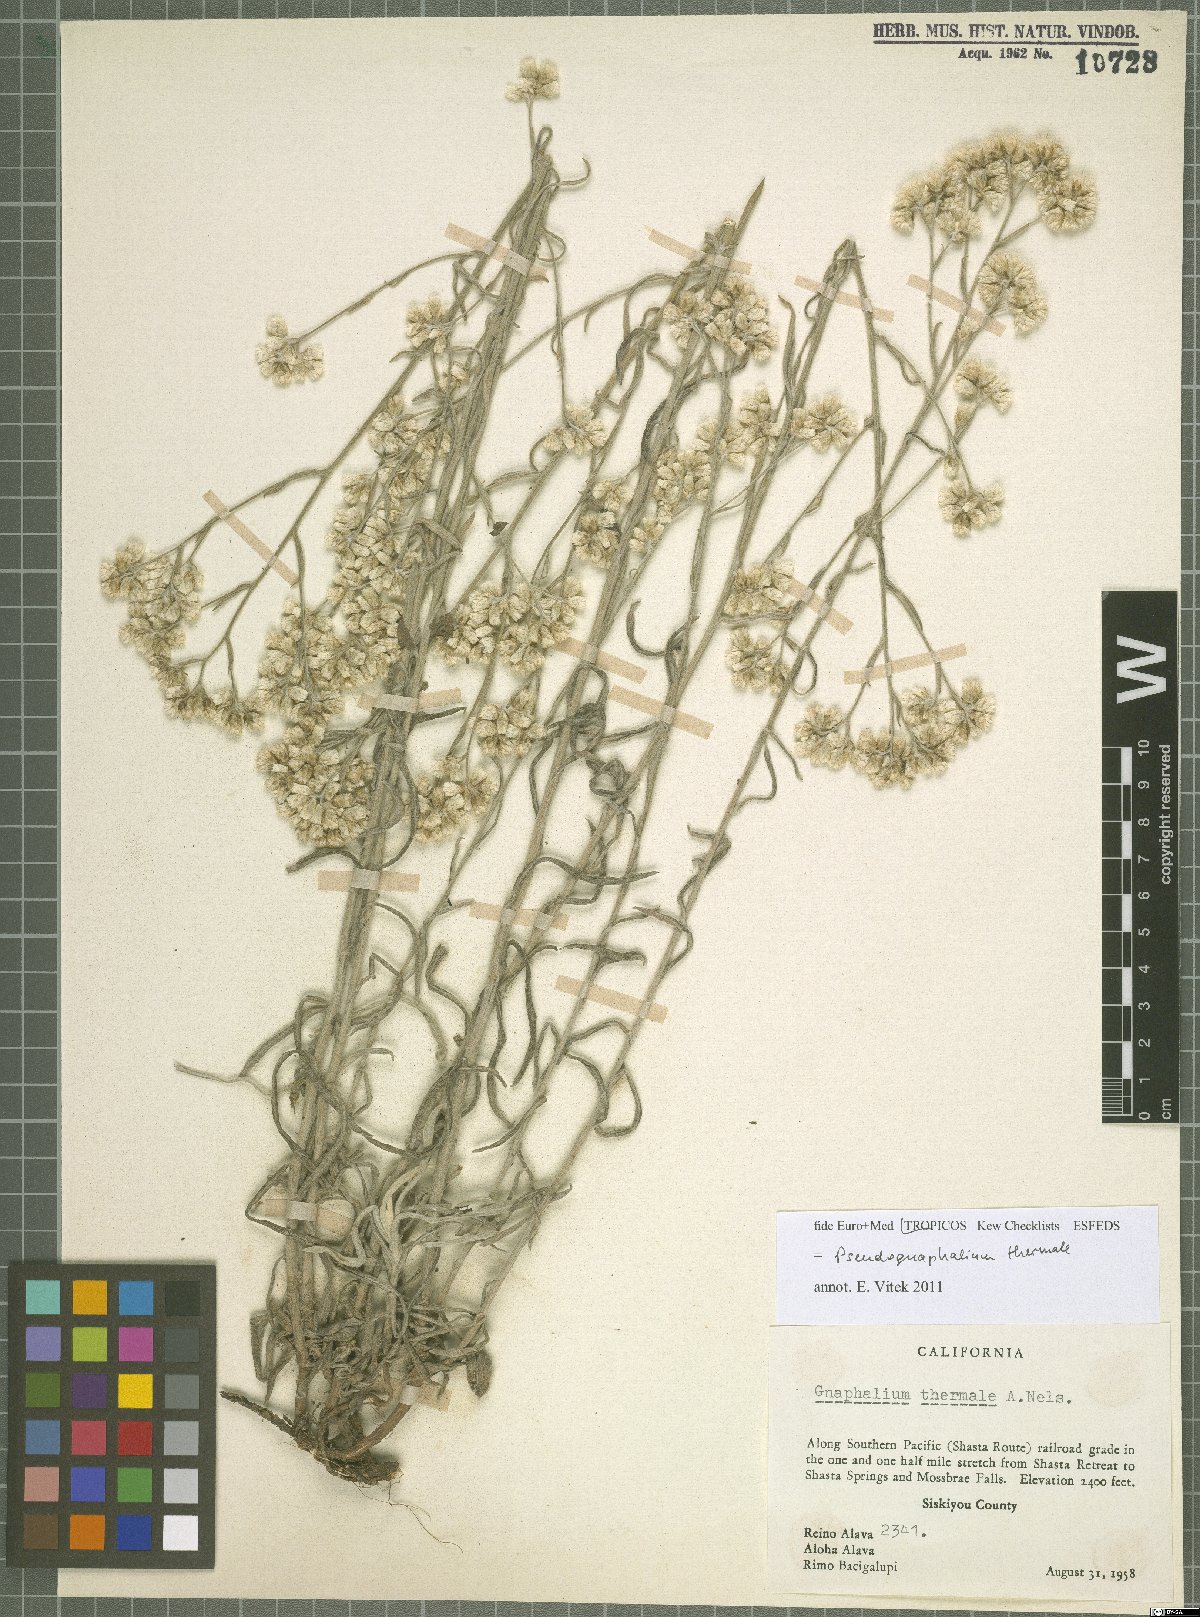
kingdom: Plantae
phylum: Tracheophyta
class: Magnoliopsida
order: Asterales
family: Asteraceae
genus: Pseudognaphalium
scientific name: Pseudognaphalium thermale
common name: Northwestern rabbit-tobacco
